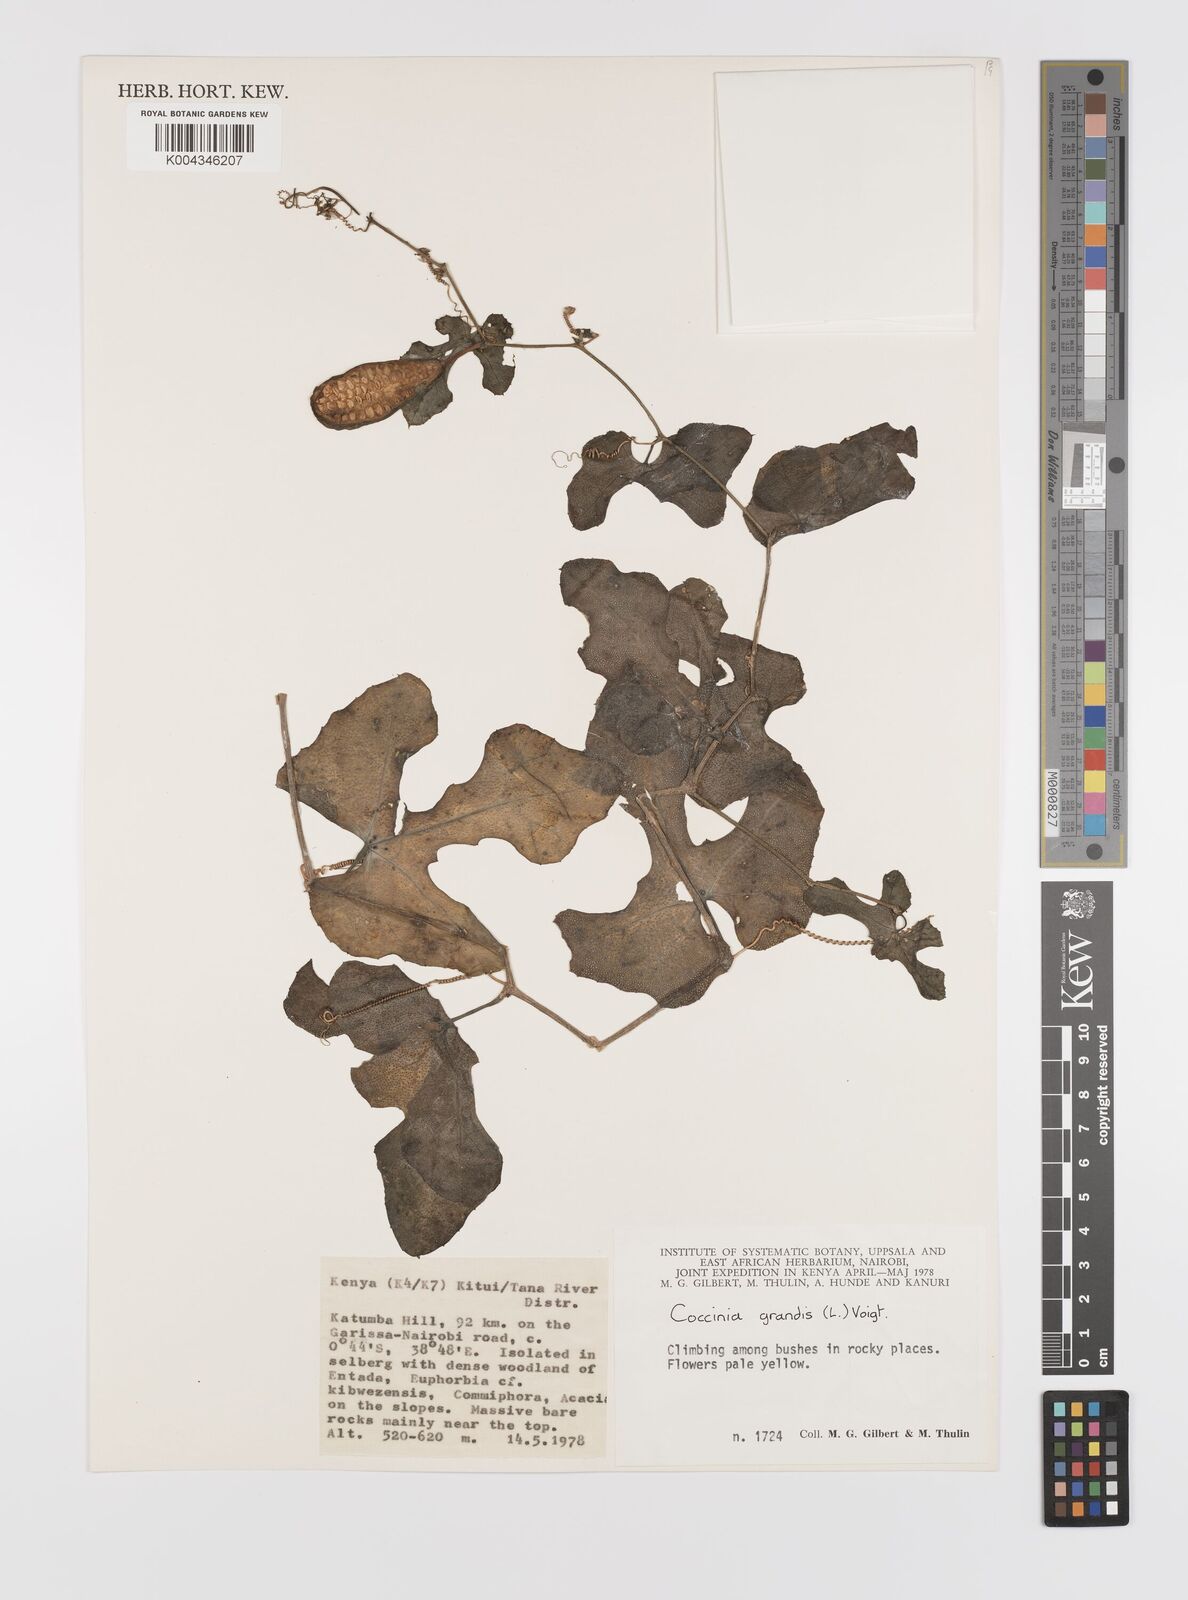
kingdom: Plantae
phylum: Tracheophyta
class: Magnoliopsida
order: Cucurbitales
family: Cucurbitaceae
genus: Coccinia
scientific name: Coccinia grandis
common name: Ivy gourd
